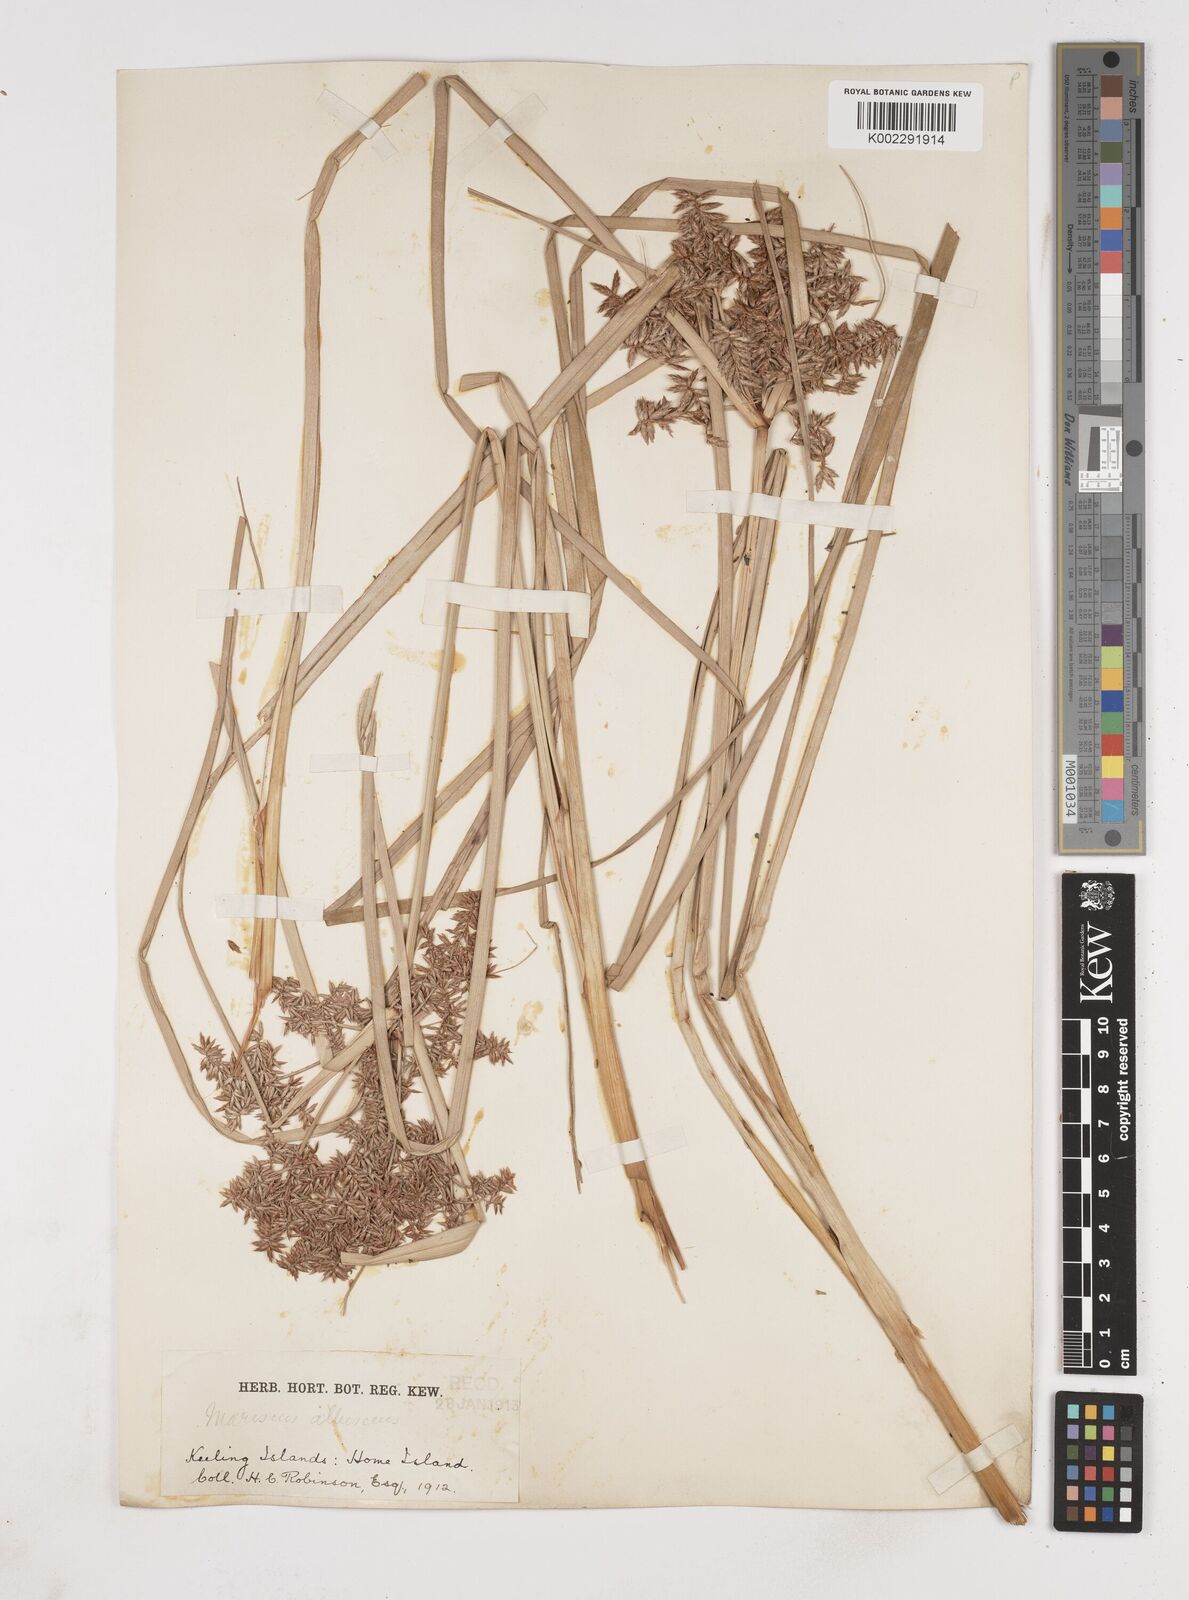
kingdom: Plantae
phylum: Tracheophyta
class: Liliopsida
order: Poales
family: Cyperaceae
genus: Cyperus
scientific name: Cyperus javanicus
